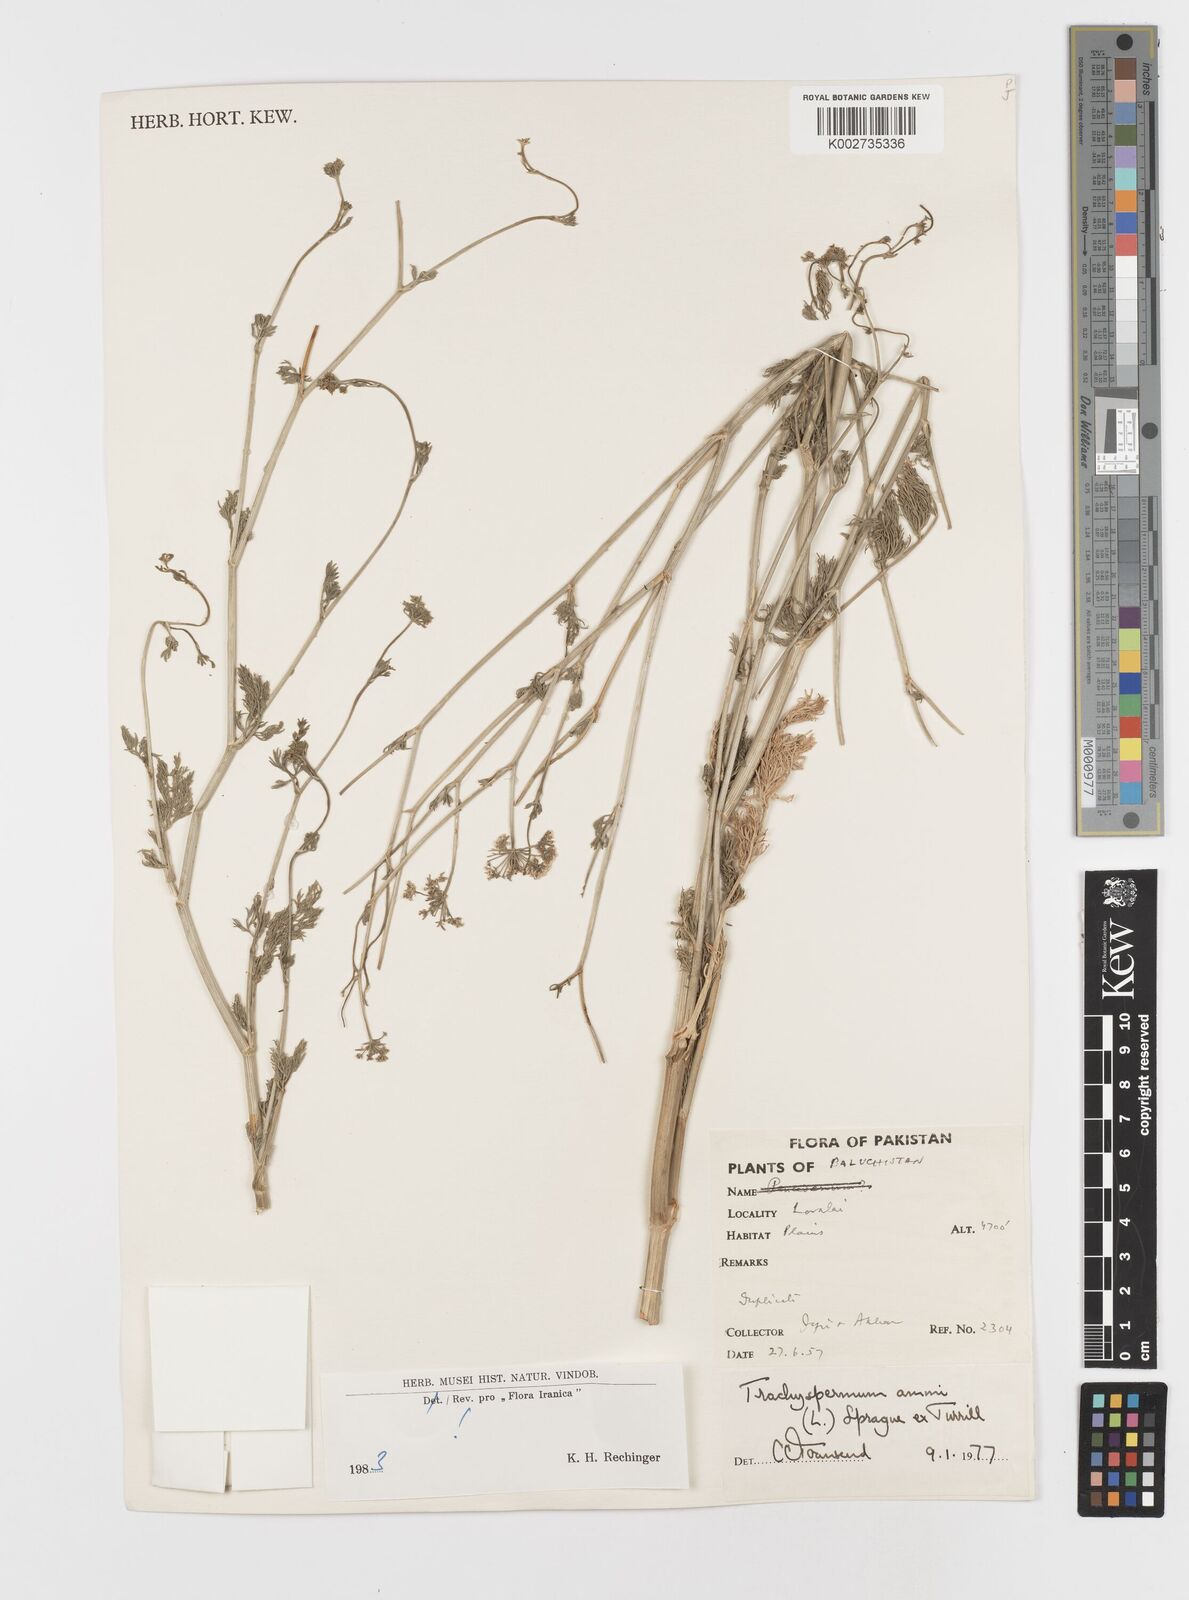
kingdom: Plantae
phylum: Tracheophyta
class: Magnoliopsida
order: Apiales
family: Apiaceae
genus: Trachyspermum
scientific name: Trachyspermum baluchistanicum
